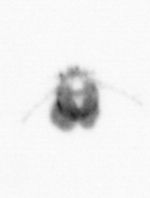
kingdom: Animalia
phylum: Arthropoda
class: Copepoda
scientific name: Copepoda
